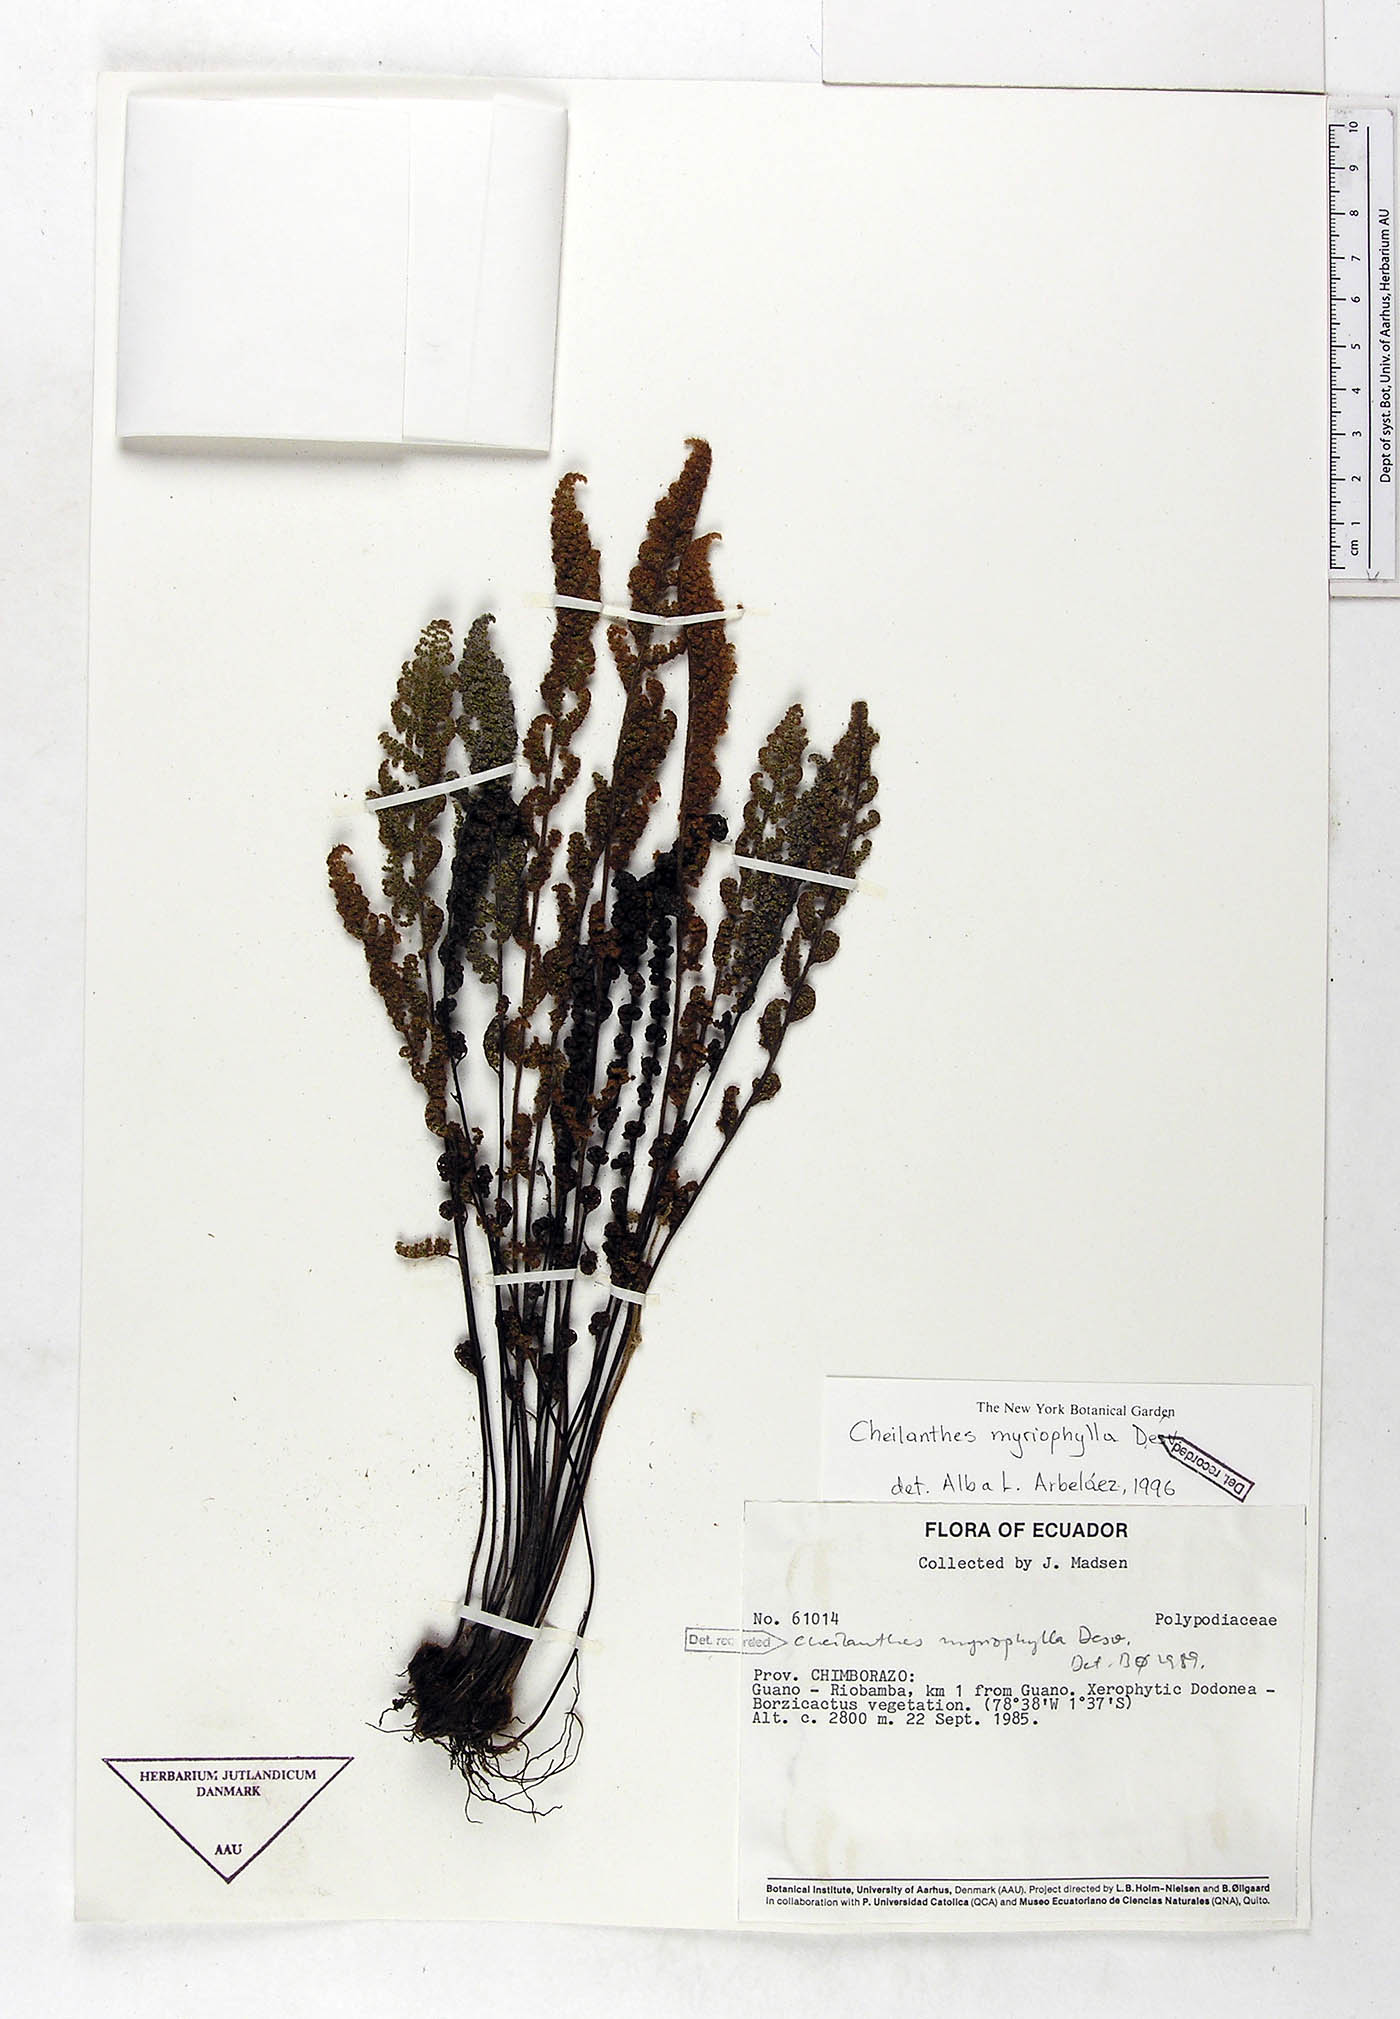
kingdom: Plantae
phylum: Tracheophyta
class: Polypodiopsida
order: Polypodiales
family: Pteridaceae
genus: Myriopteris
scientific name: Myriopteris myriophylla
